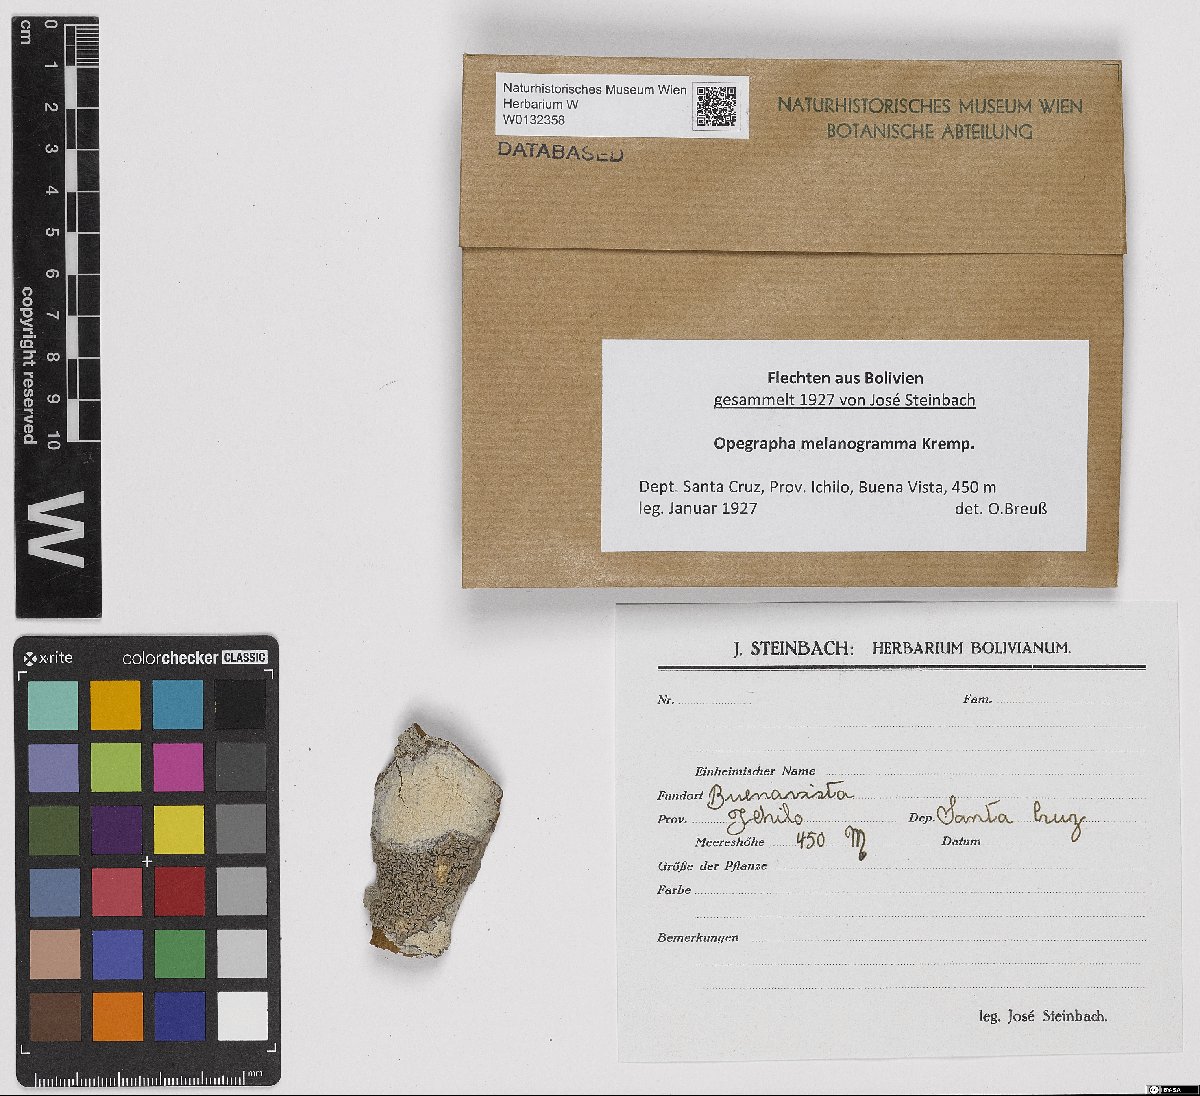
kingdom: Fungi
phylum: Ascomycota
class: Arthoniomycetes
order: Arthoniales
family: Opegraphaceae
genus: Opegrapha
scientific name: Opegrapha
